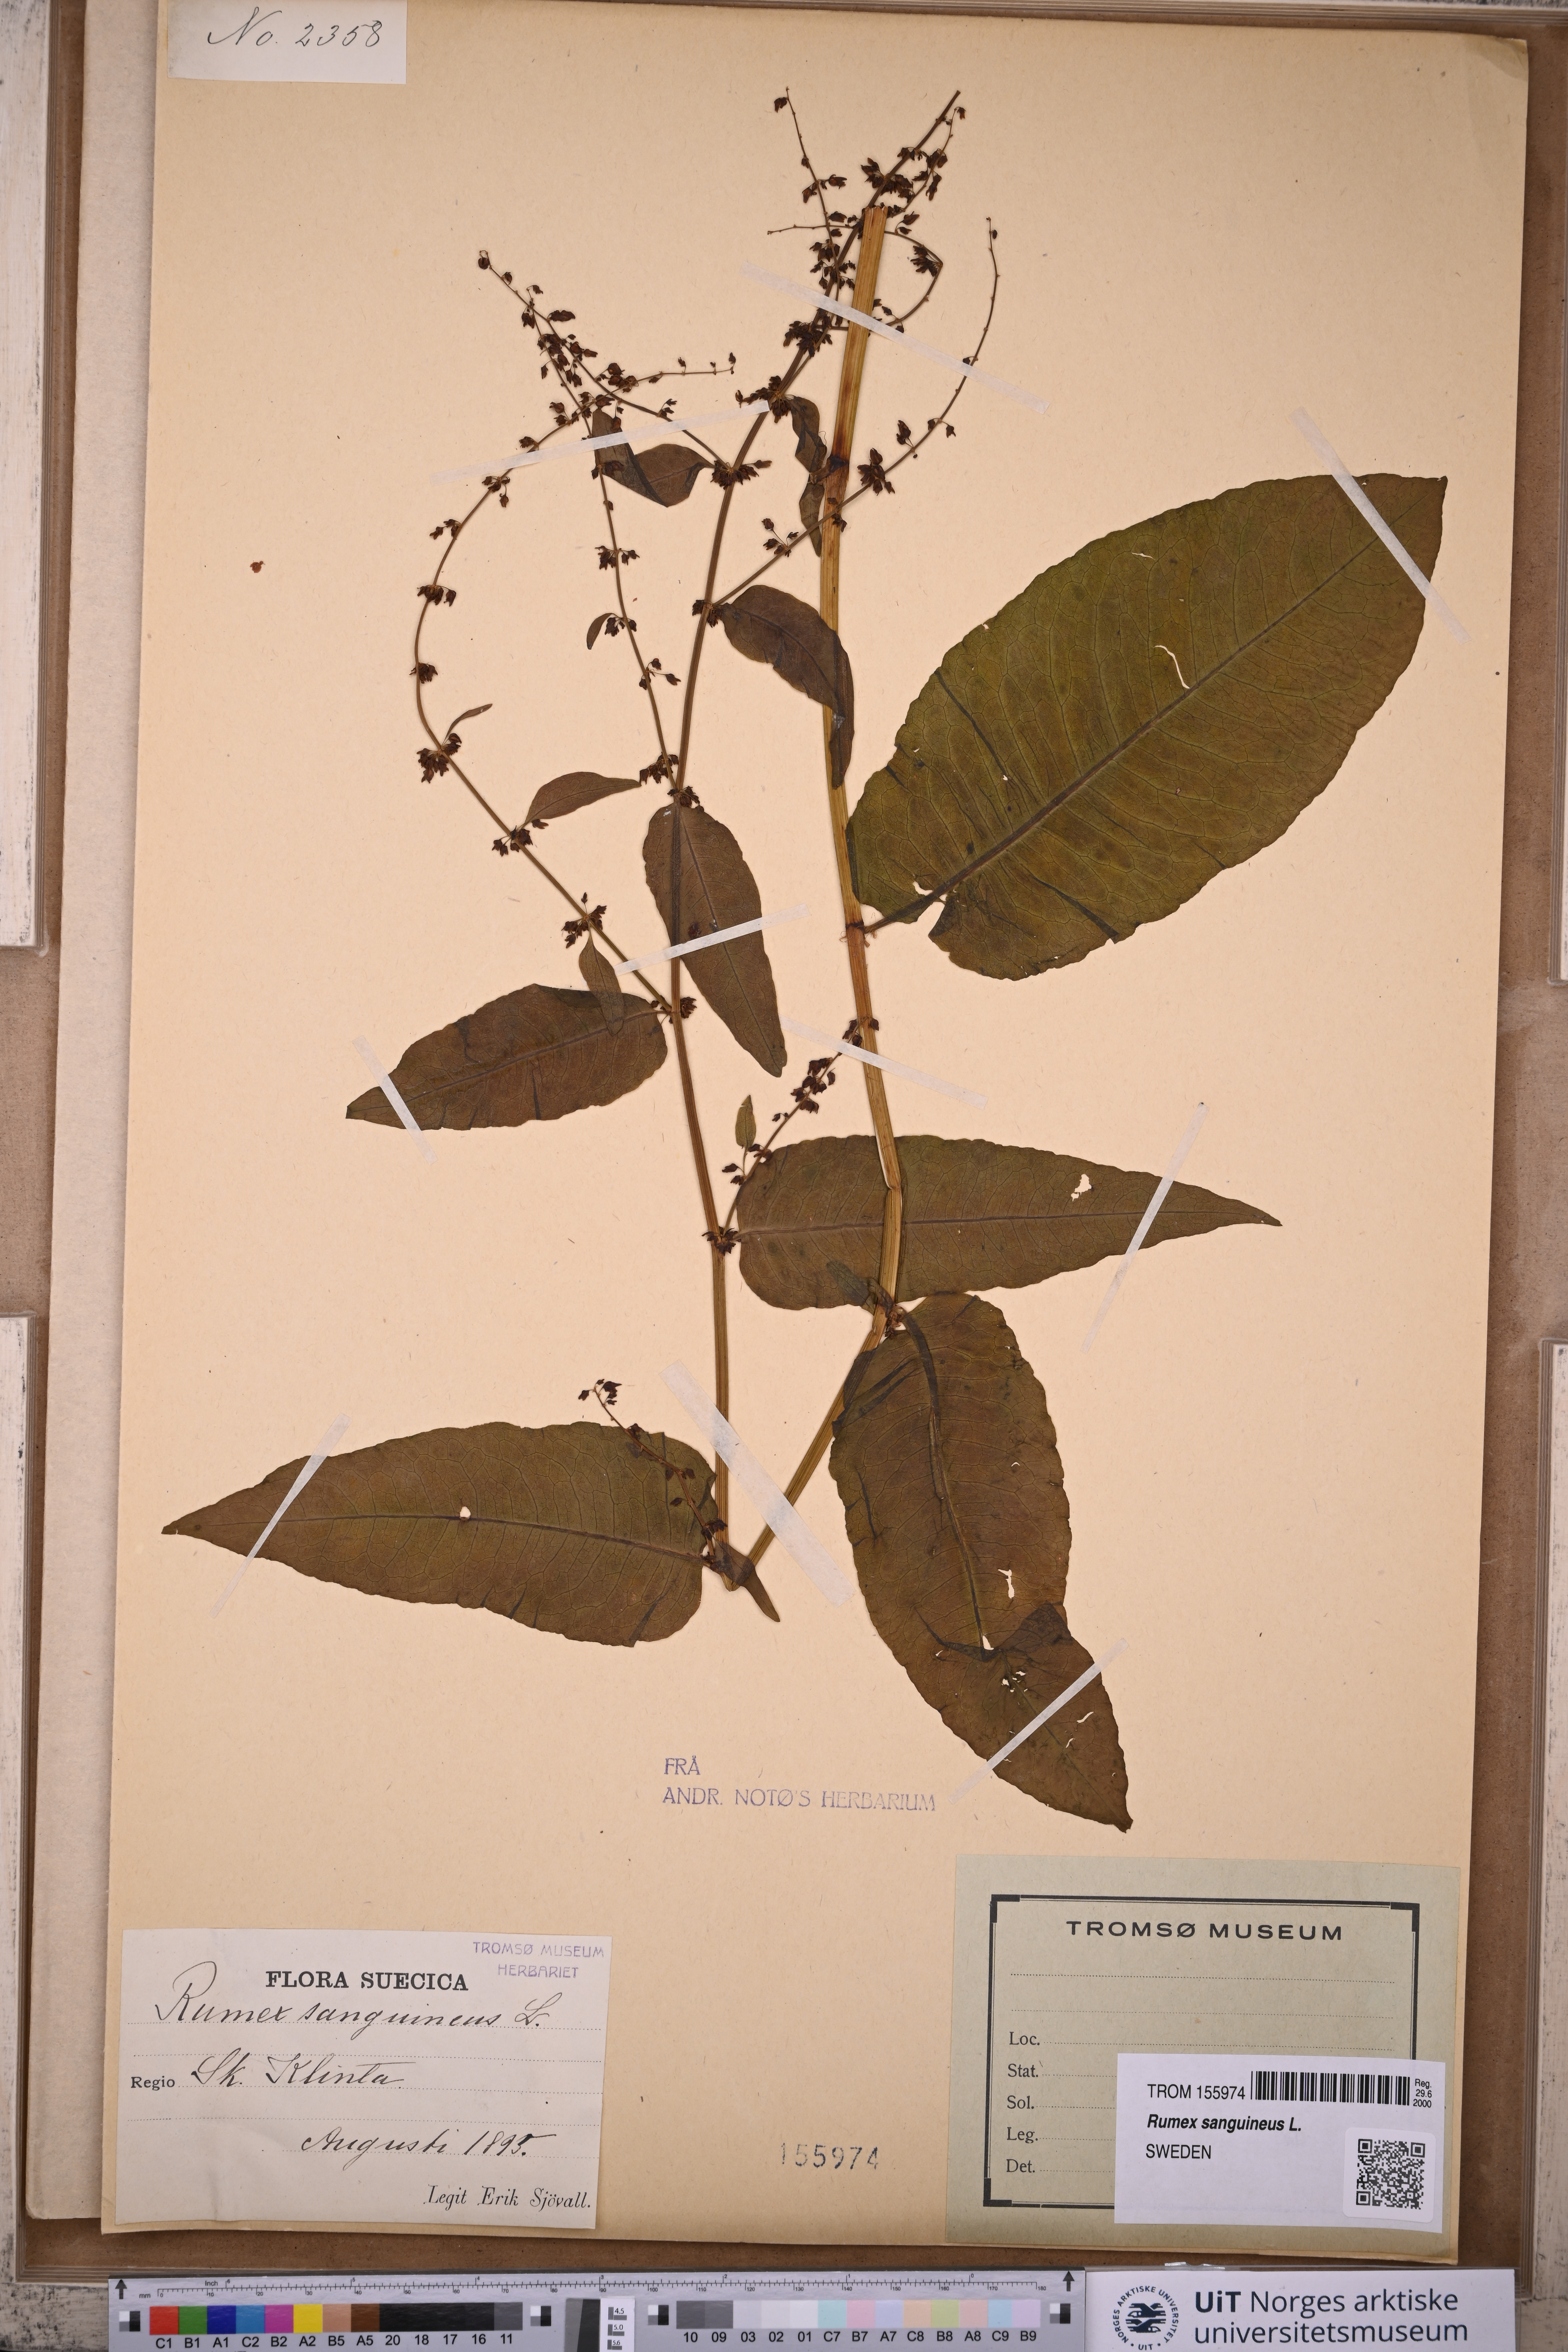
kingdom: Plantae
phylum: Tracheophyta
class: Magnoliopsida
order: Caryophyllales
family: Polygonaceae
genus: Rumex
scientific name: Rumex sanguineus
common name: Wood dock
